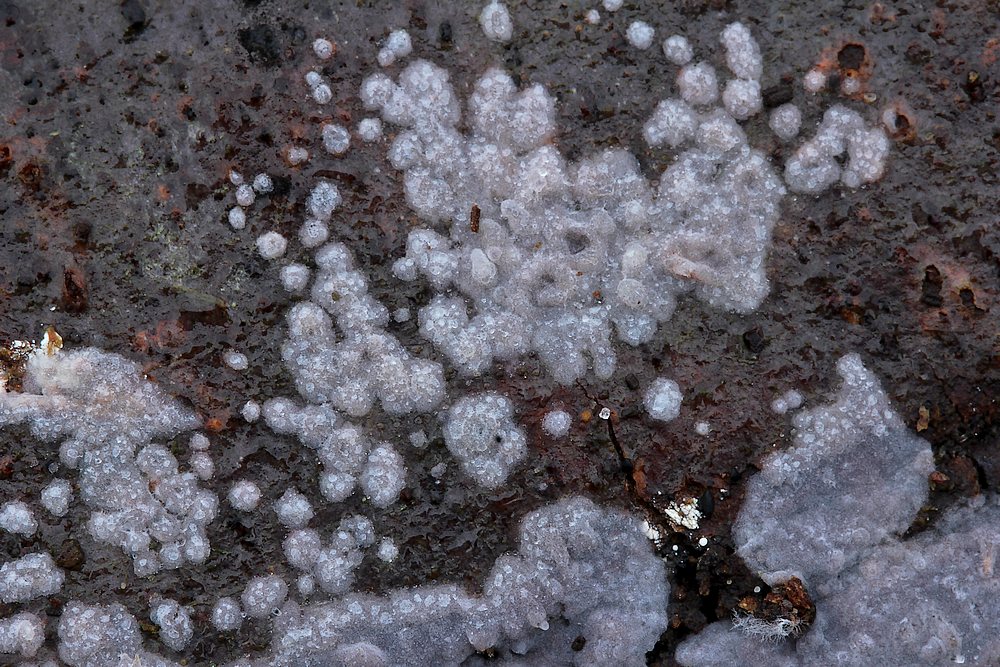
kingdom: Fungi
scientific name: Fungi
